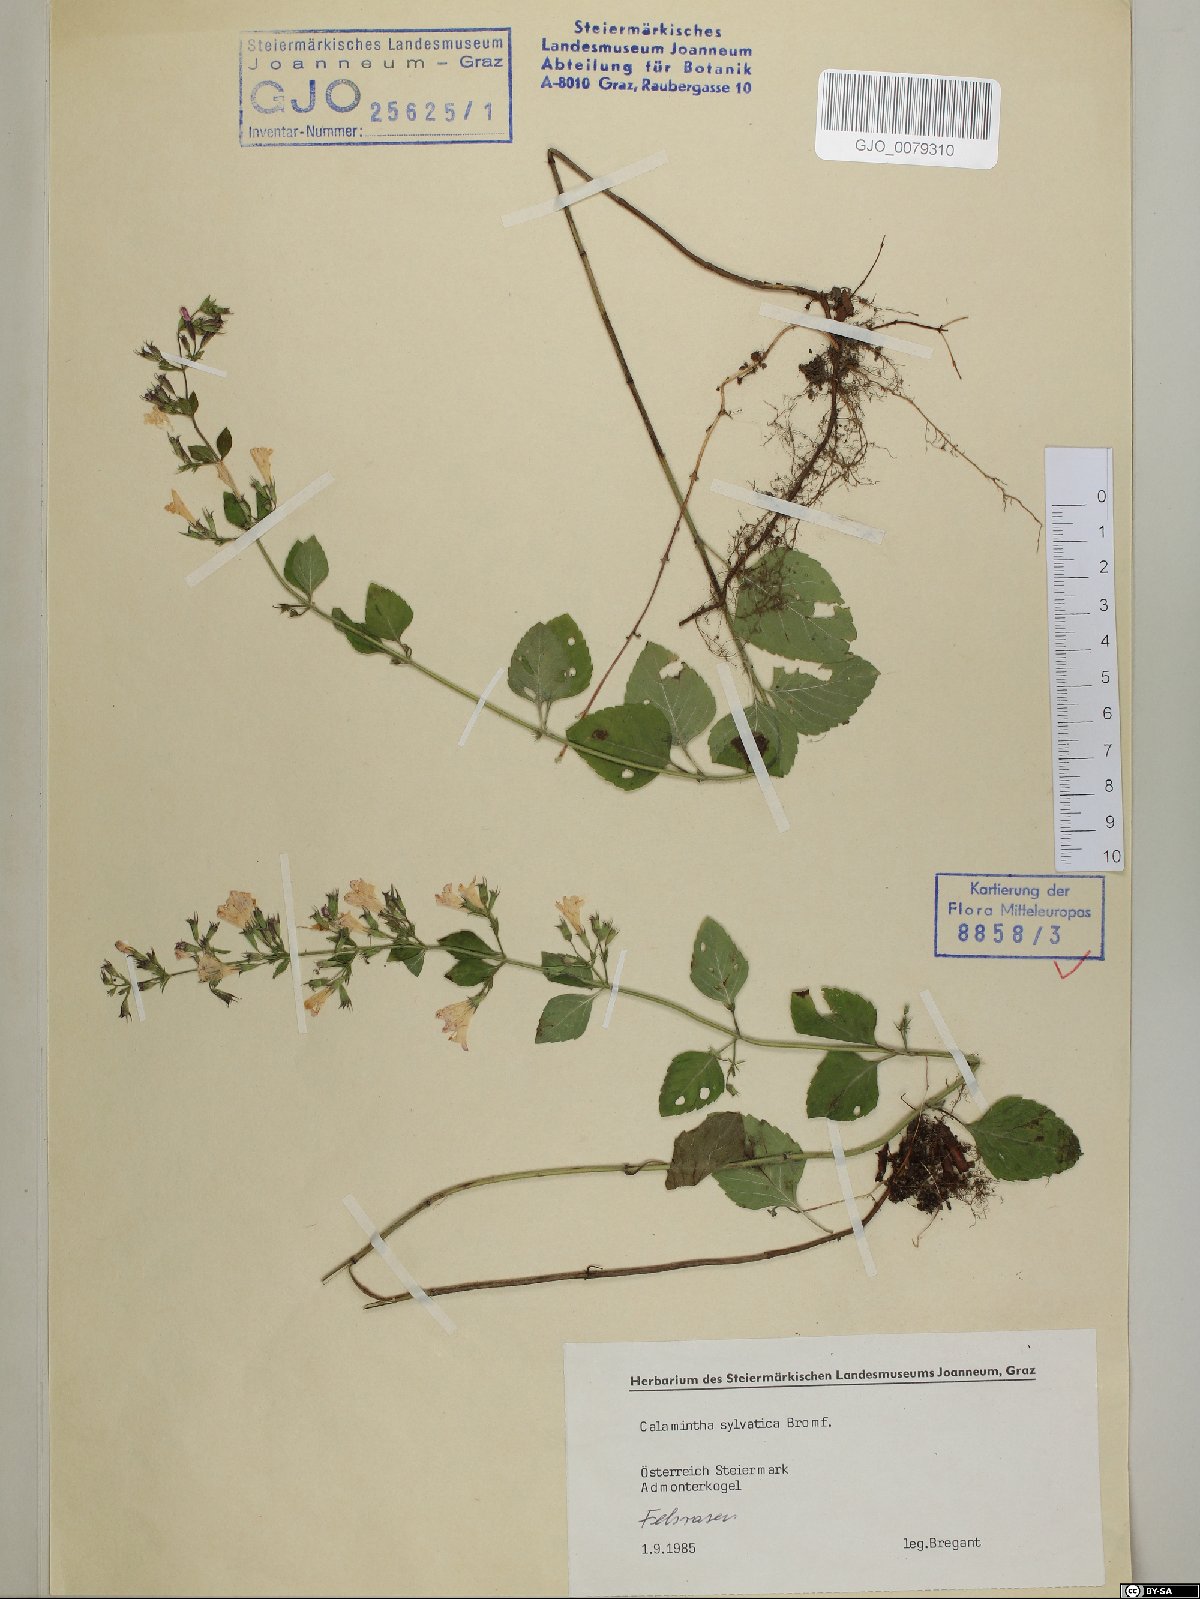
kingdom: Plantae
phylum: Tracheophyta
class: Magnoliopsida
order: Lamiales
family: Lamiaceae
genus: Clinopodium
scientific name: Clinopodium menthifolium
